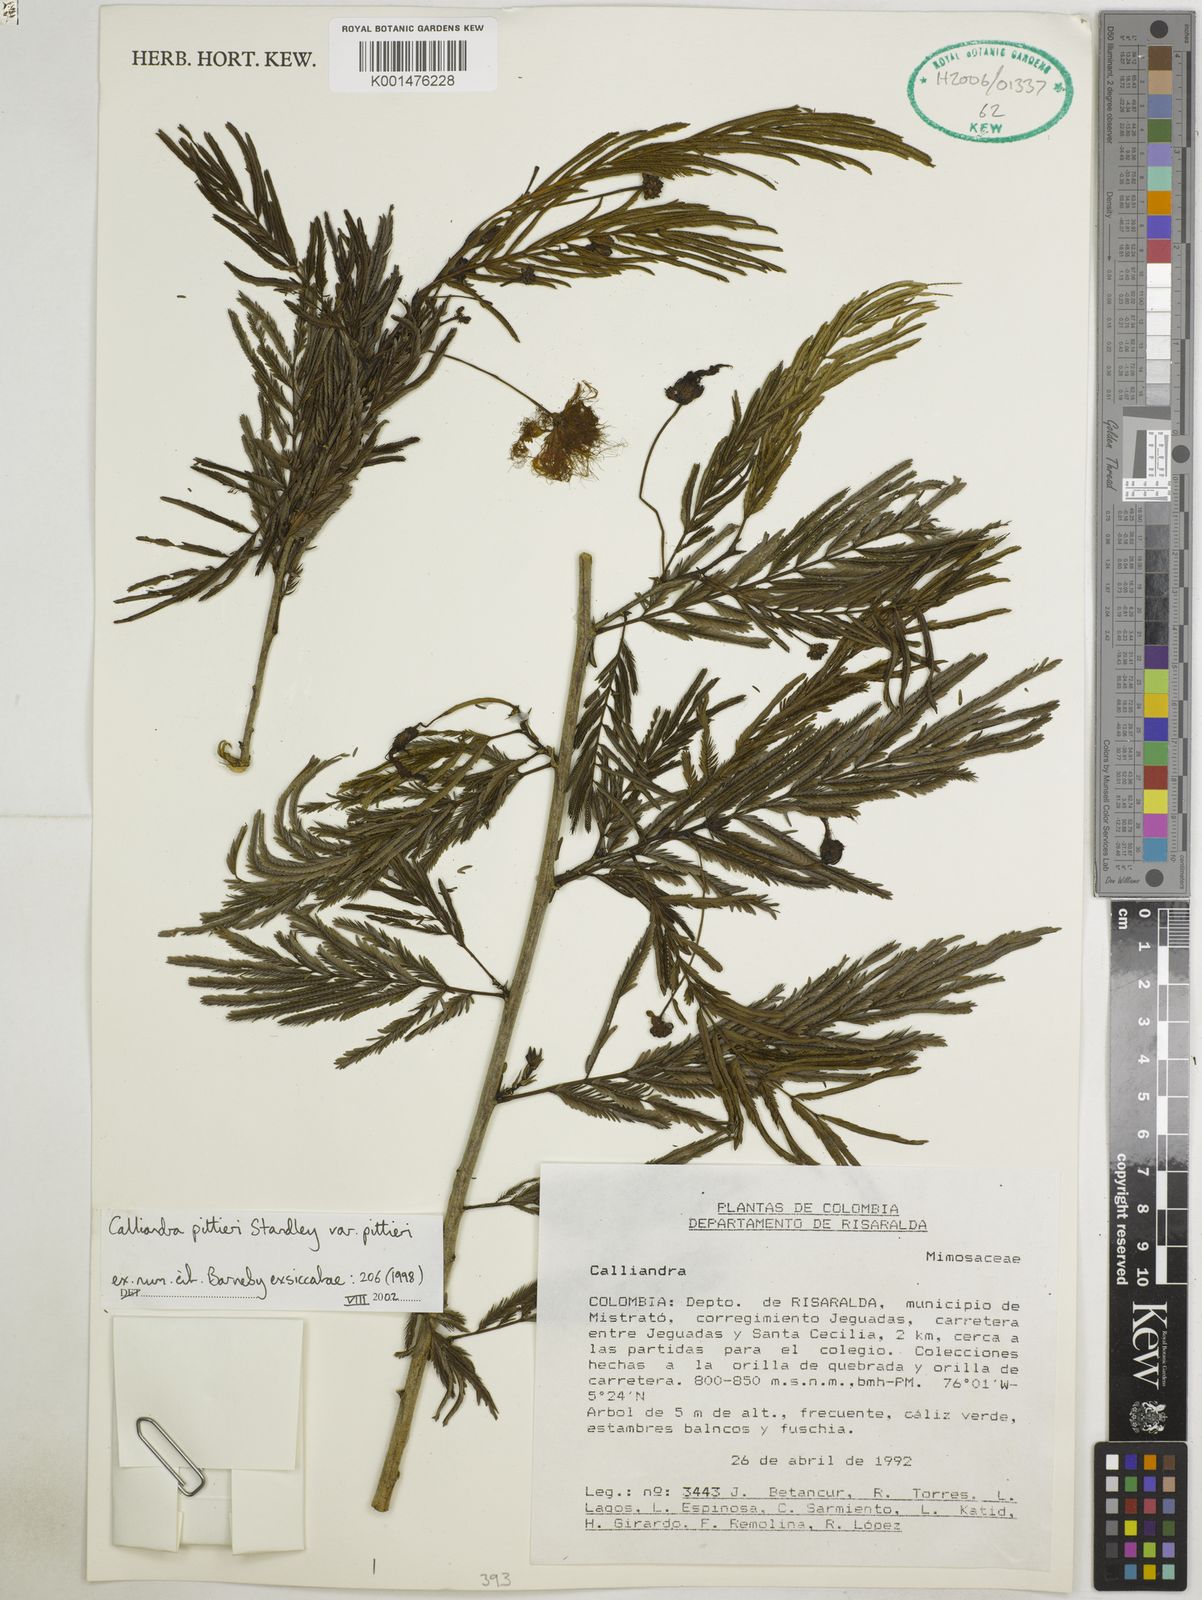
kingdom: Plantae
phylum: Tracheophyta
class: Magnoliopsida
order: Fabales
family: Fabaceae
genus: Calliandra
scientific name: Calliandra pittieri
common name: Carbonero de avenidas
